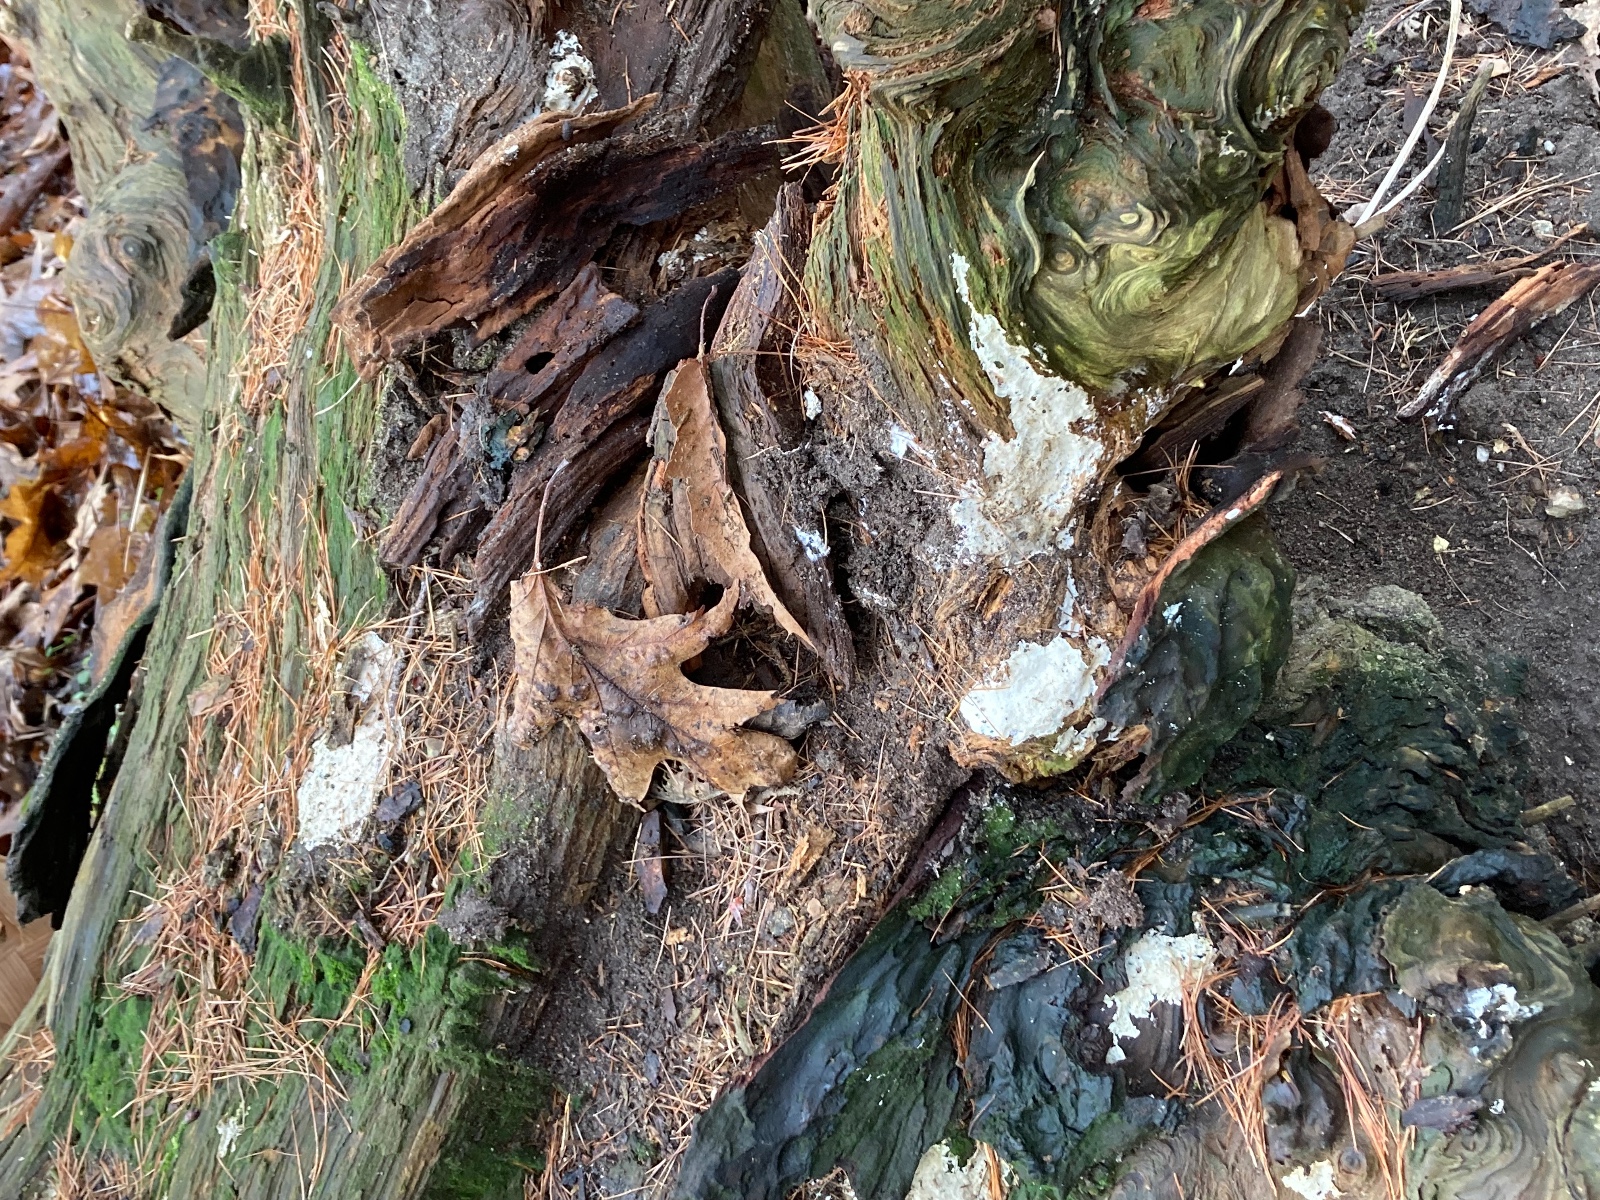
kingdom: Fungi
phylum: Basidiomycota
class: Agaricomycetes
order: Polyporales
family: Dacryobolaceae
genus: Postia
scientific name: Postia sericeomollis
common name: flad kødporesvamp
